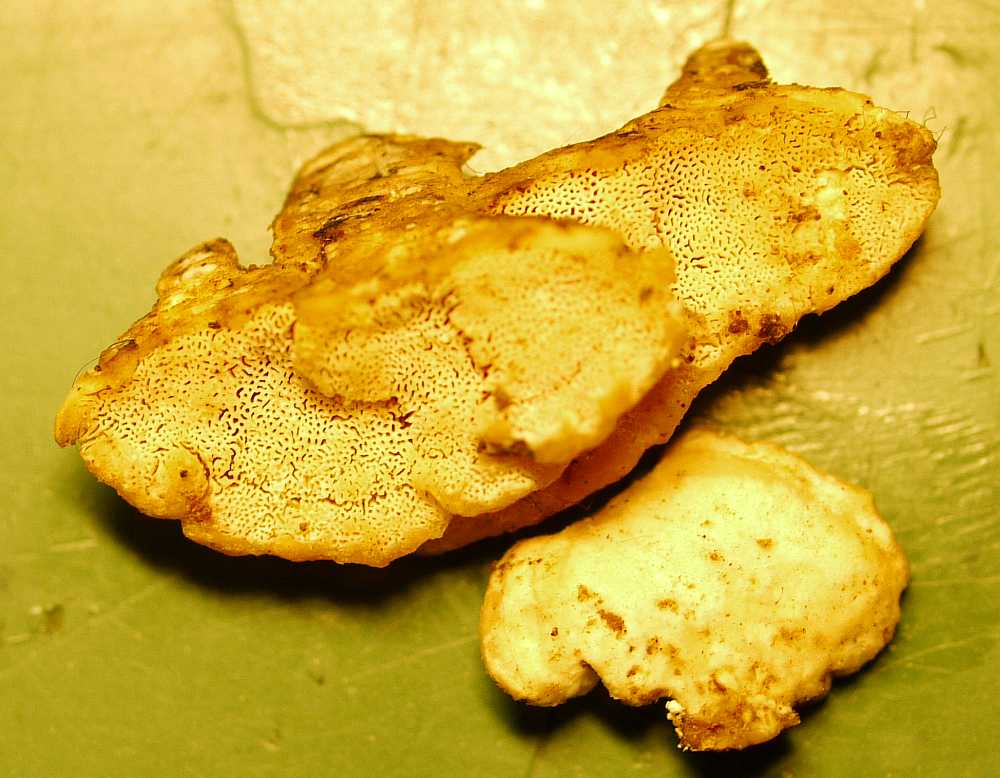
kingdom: Fungi
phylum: Basidiomycota
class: Agaricomycetes
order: Polyporales
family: Incrustoporiaceae
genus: Skeletocutis
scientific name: Skeletocutis nemoralis
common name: stor krystalporesvamp
